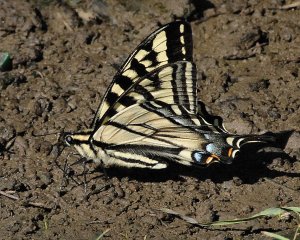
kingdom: Animalia
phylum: Arthropoda
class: Insecta
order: Lepidoptera
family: Papilionidae
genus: Pterourus
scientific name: Pterourus rutulus
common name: Western Tiger Swallowtail
